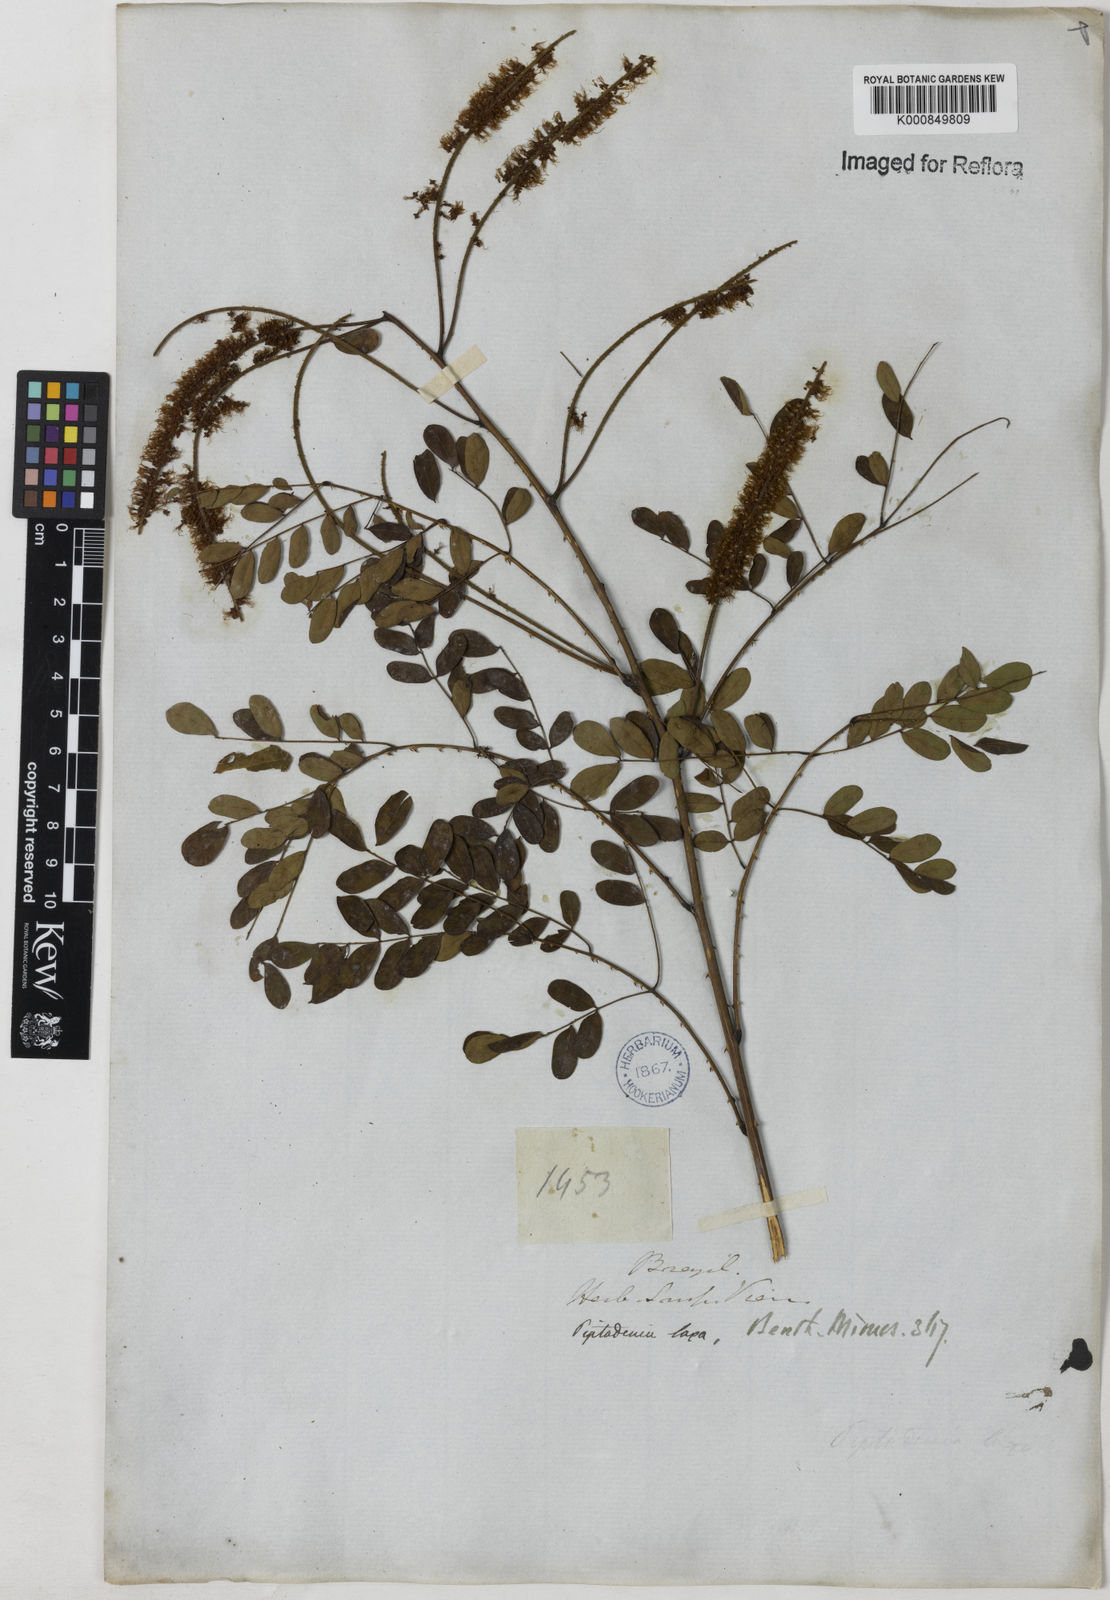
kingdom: Plantae
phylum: Tracheophyta
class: Magnoliopsida
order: Fabales
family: Fabaceae
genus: Piptadenia
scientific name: Piptadenia adiantoides
